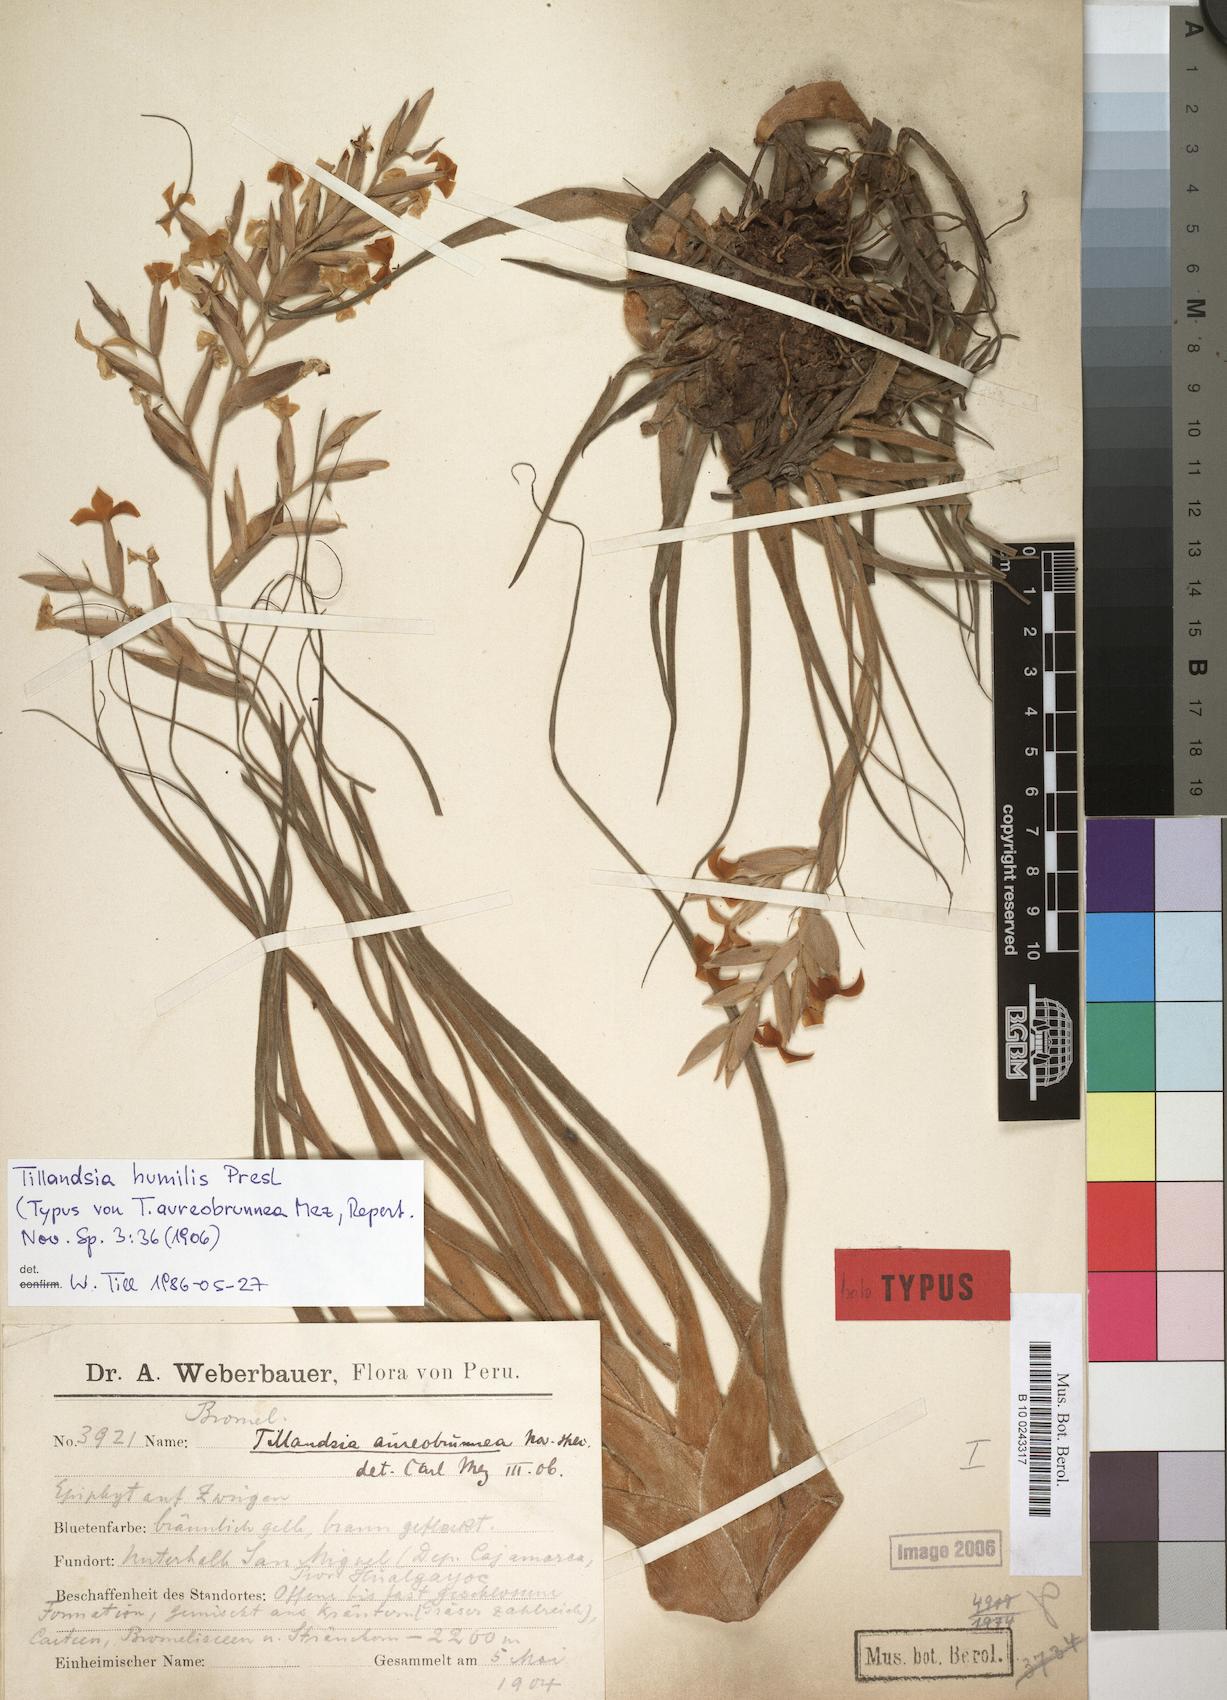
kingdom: Plantae
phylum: Tracheophyta
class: Liliopsida
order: Poales
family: Bromeliaceae
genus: Tillandsia
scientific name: Tillandsia humilis
